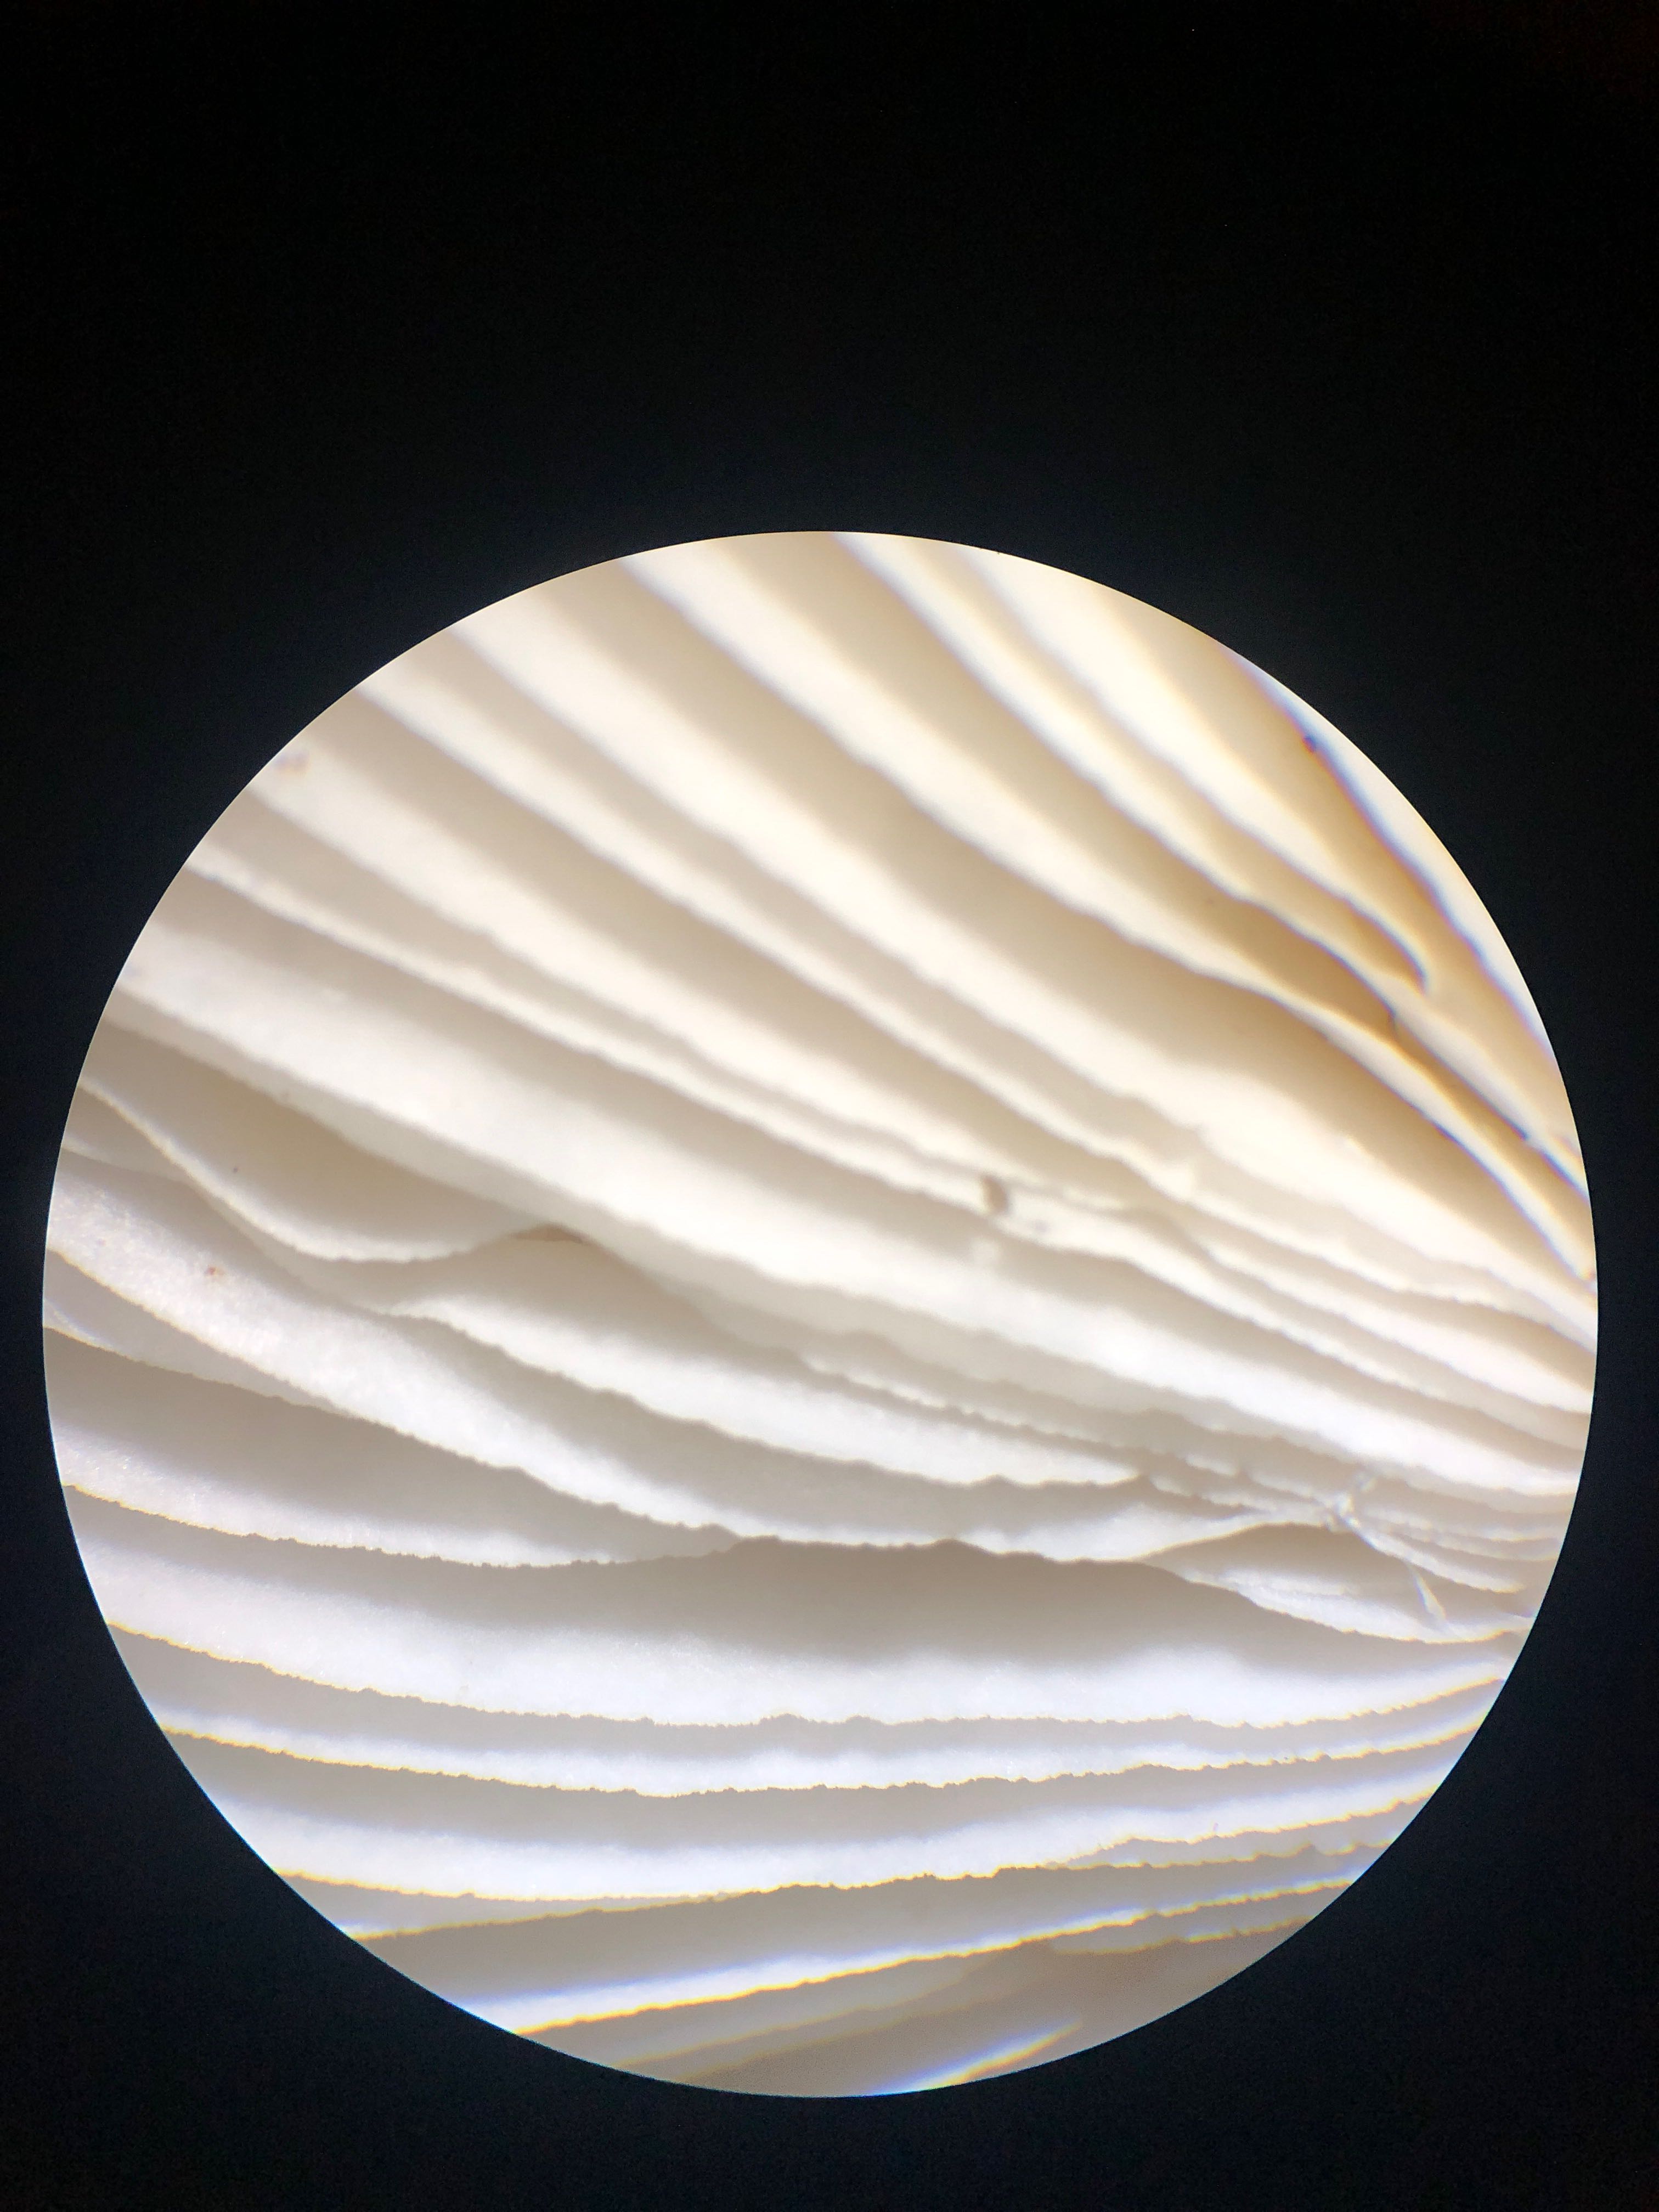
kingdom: Fungi
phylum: Basidiomycota
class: Agaricomycetes
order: Russulales
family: Russulaceae
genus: Russula
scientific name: Russula fragilis
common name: savbladet skørhat
